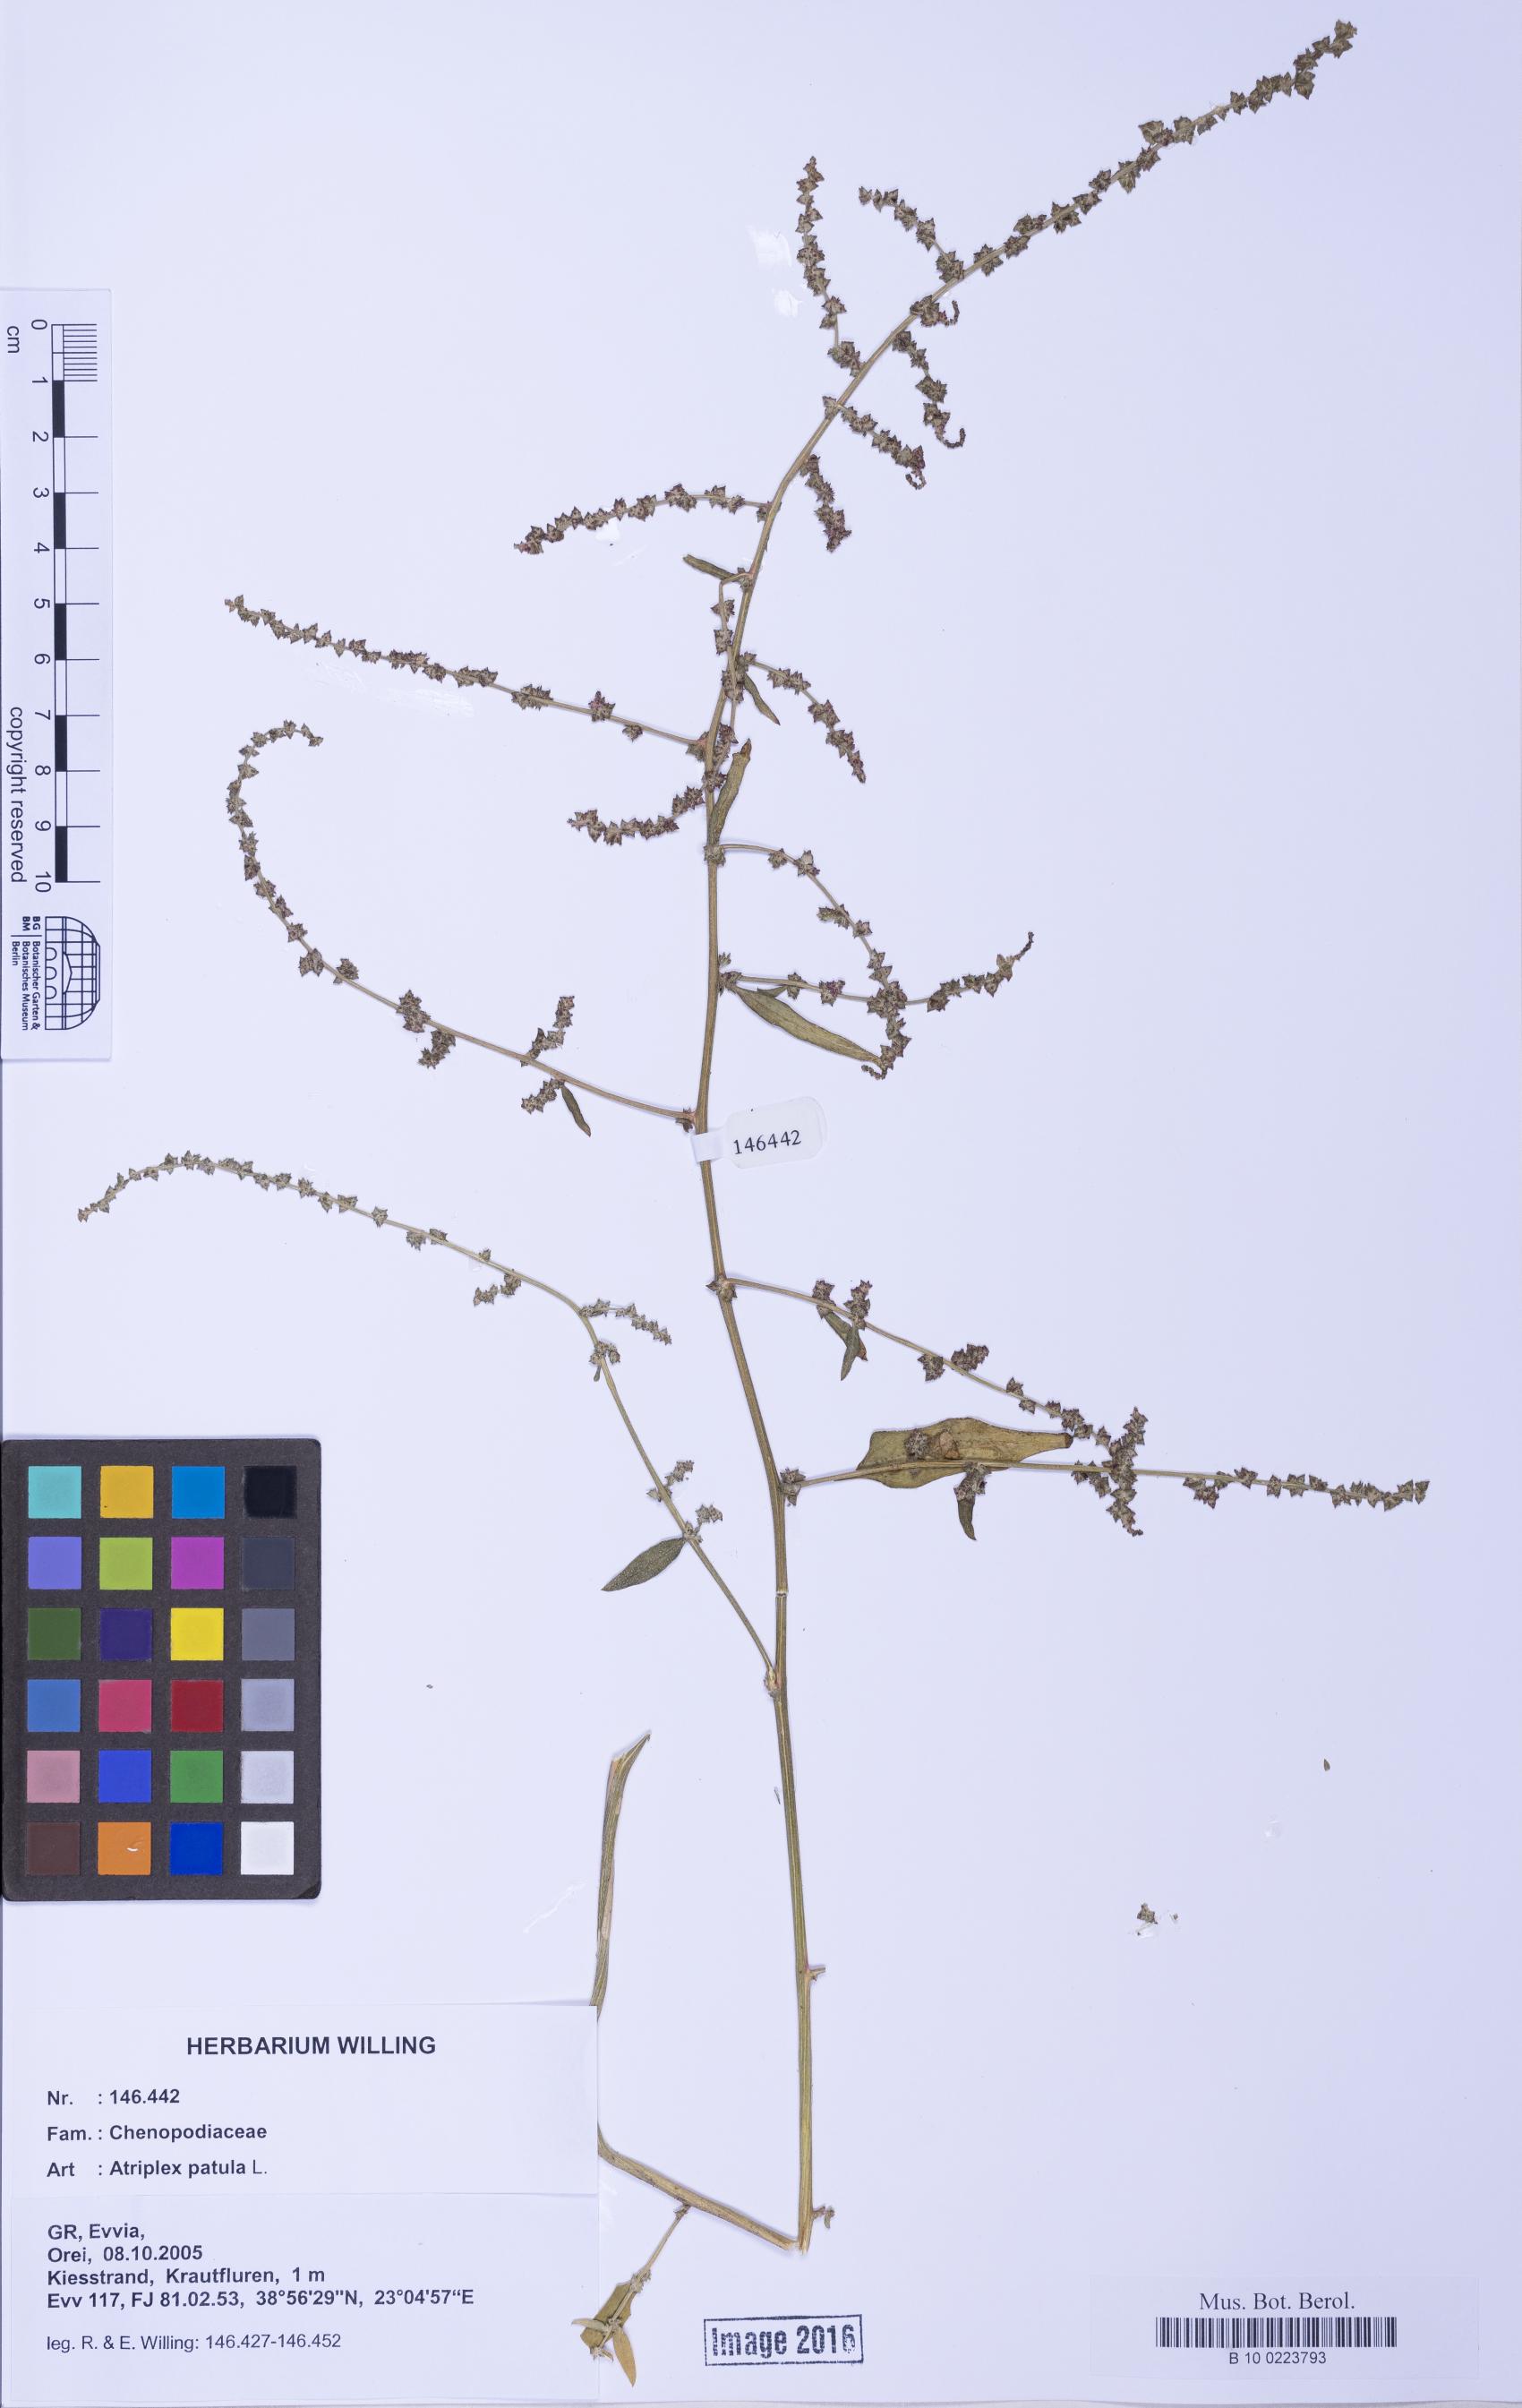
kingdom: Plantae
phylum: Tracheophyta
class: Magnoliopsida
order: Caryophyllales
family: Amaranthaceae
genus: Atriplex
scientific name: Atriplex patula
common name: Common orache
